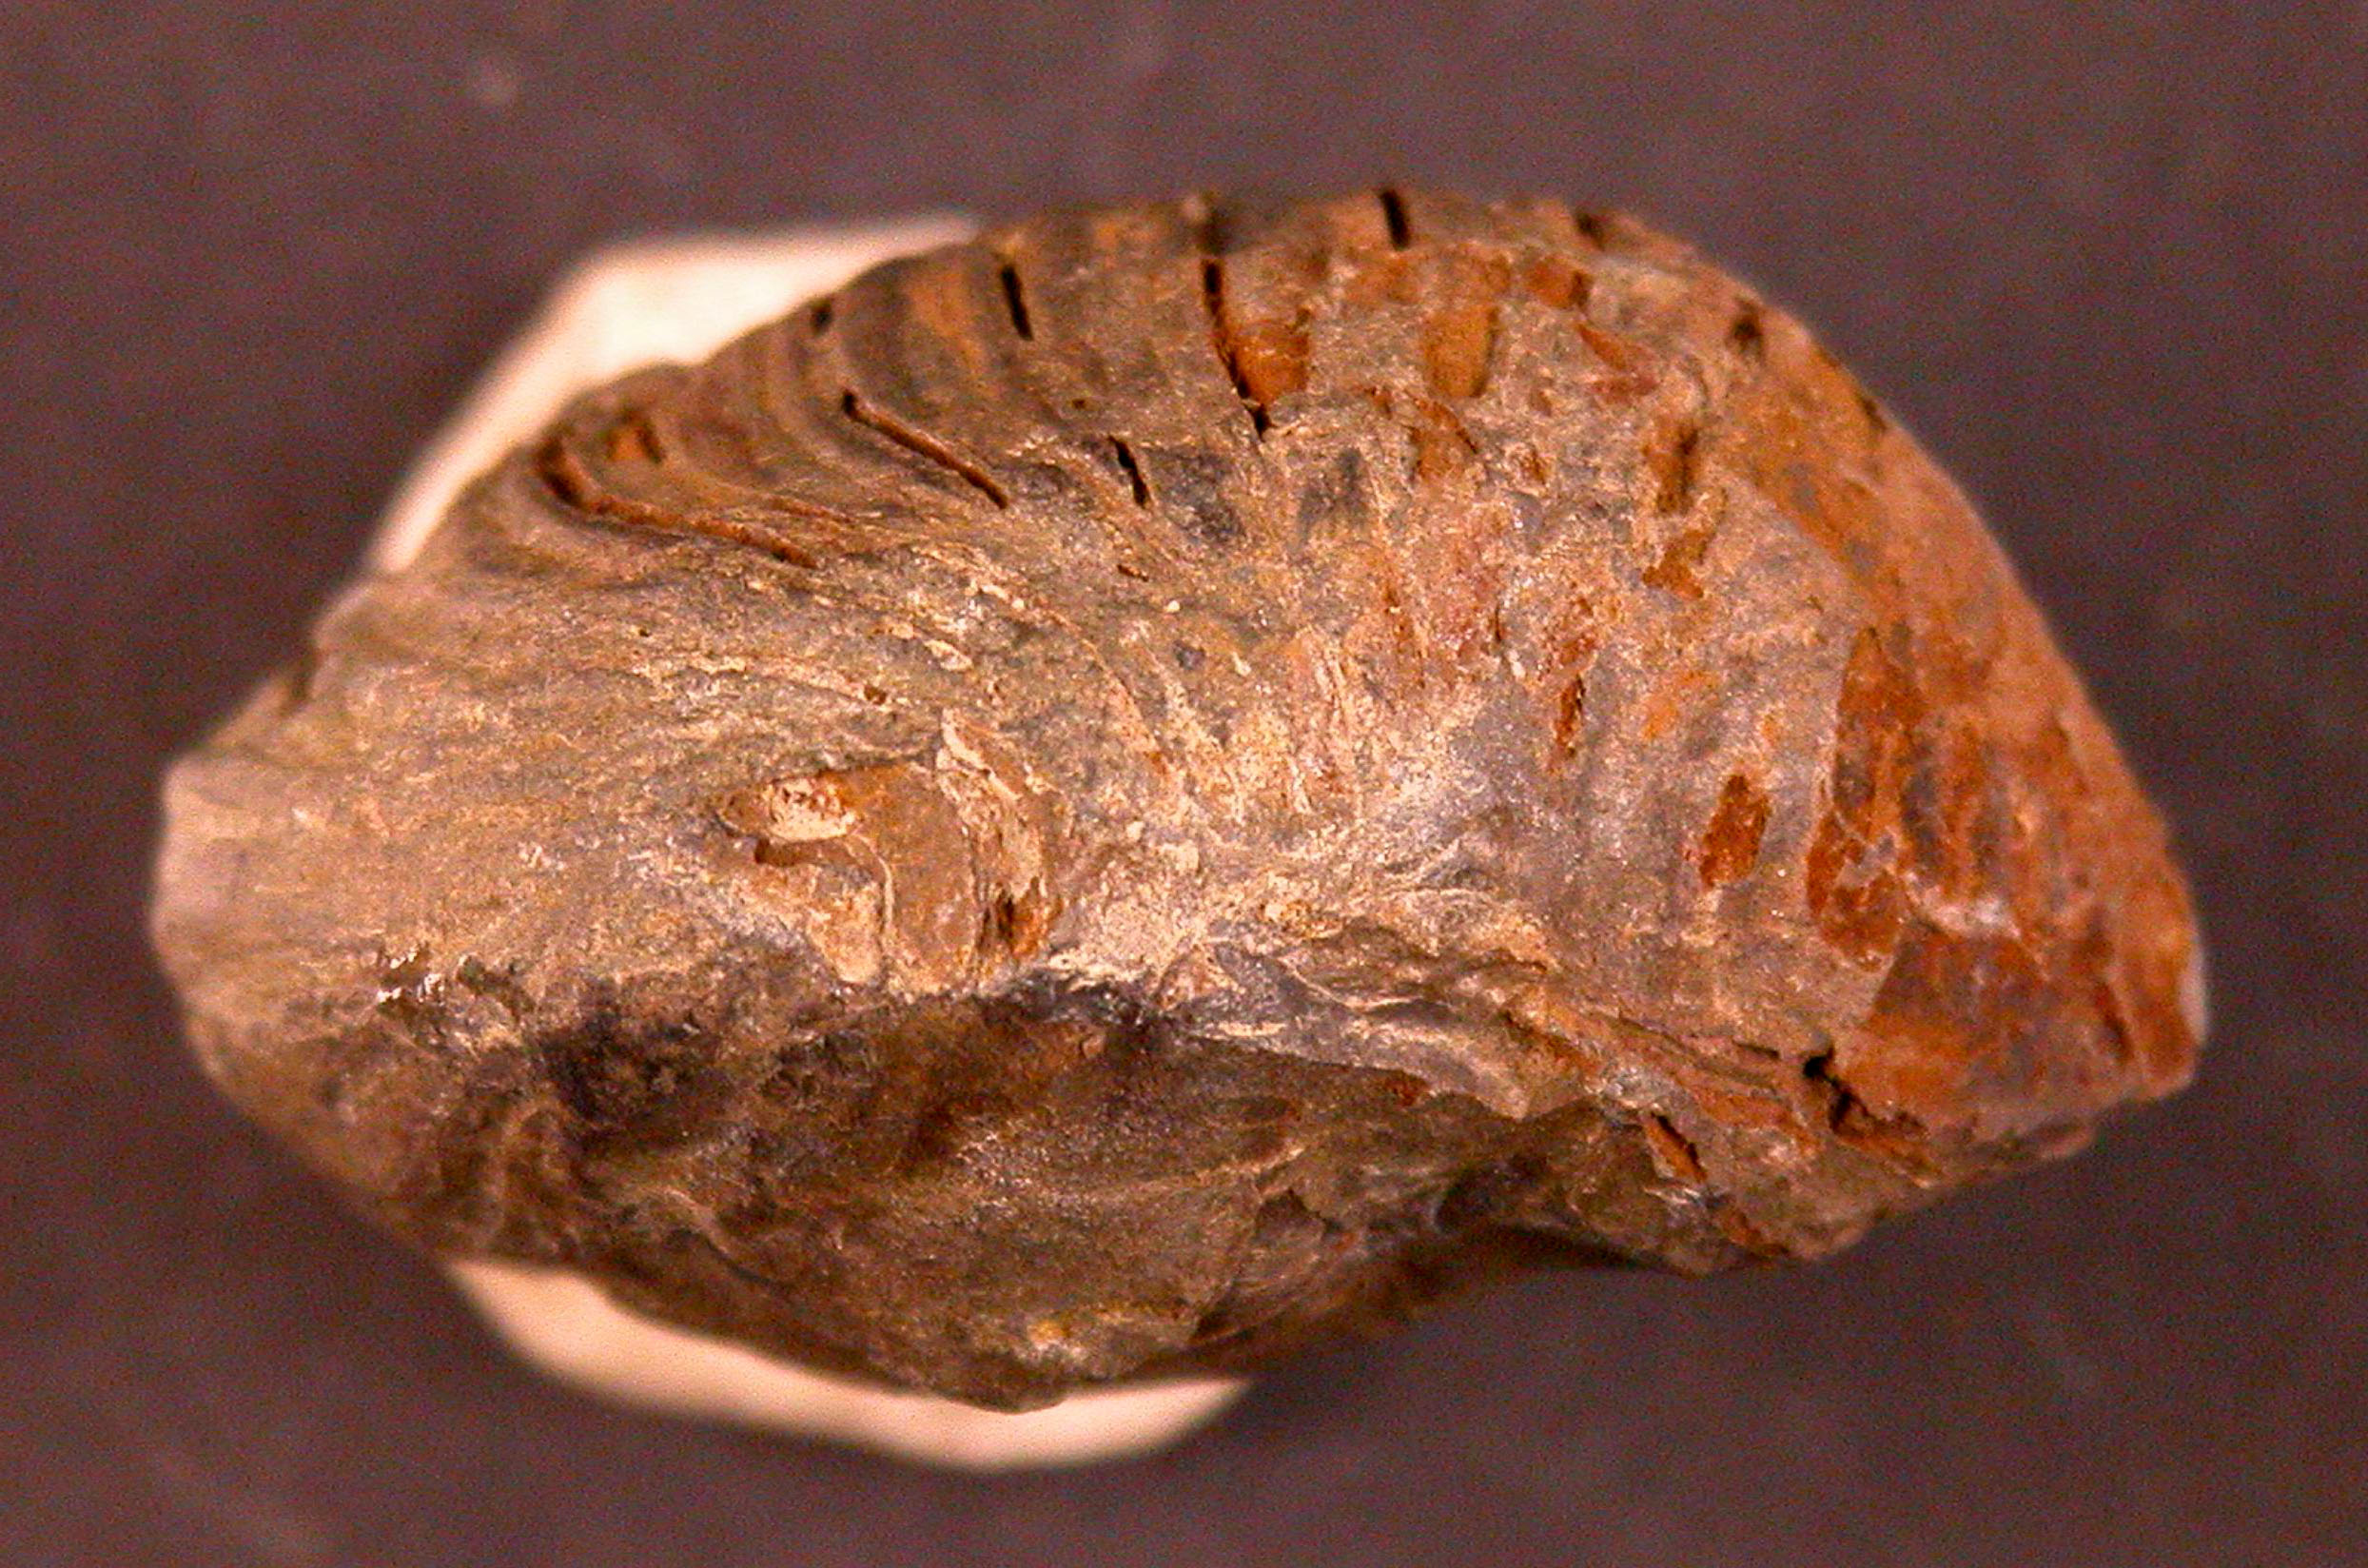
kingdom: Animalia
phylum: Arthropoda
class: Trilobita
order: Phacopida
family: Homalonotidae
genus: Parahomalonotus
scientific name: Parahomalonotus
